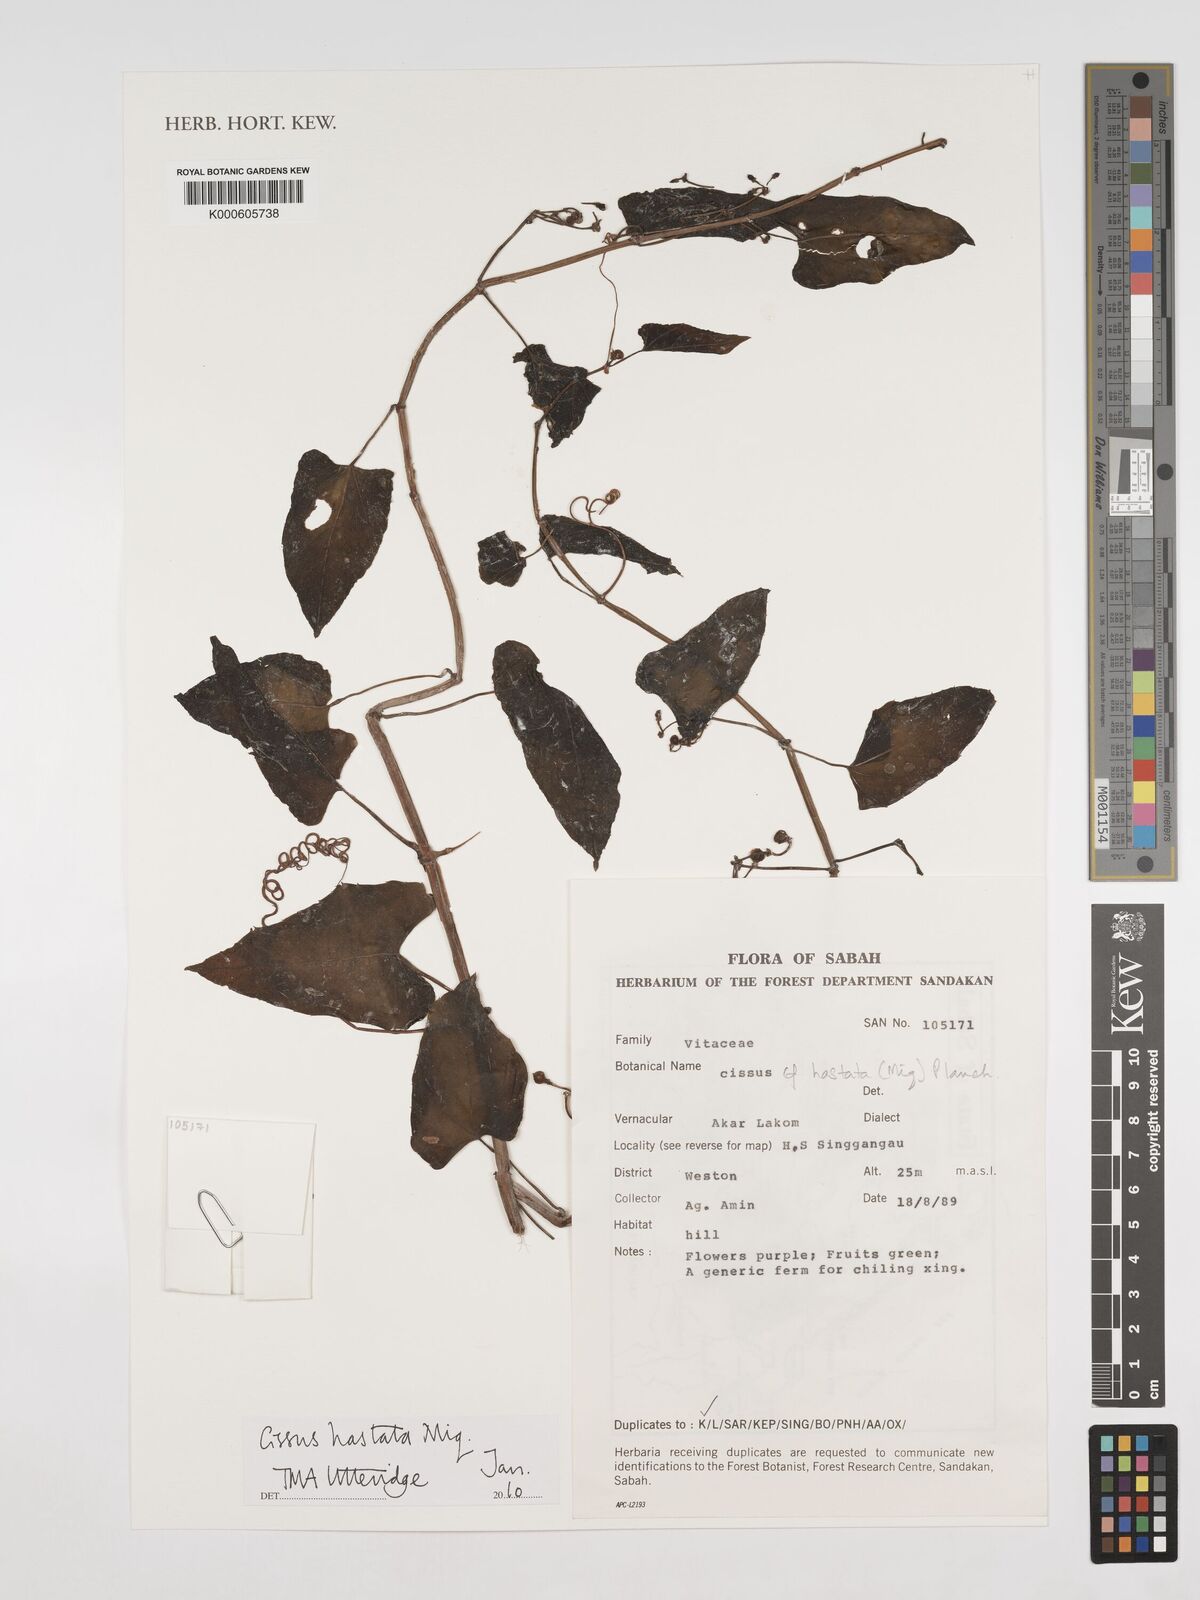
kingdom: Plantae
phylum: Tracheophyta
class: Magnoliopsida
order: Vitales
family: Vitaceae
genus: Cissus
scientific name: Cissus hastata
